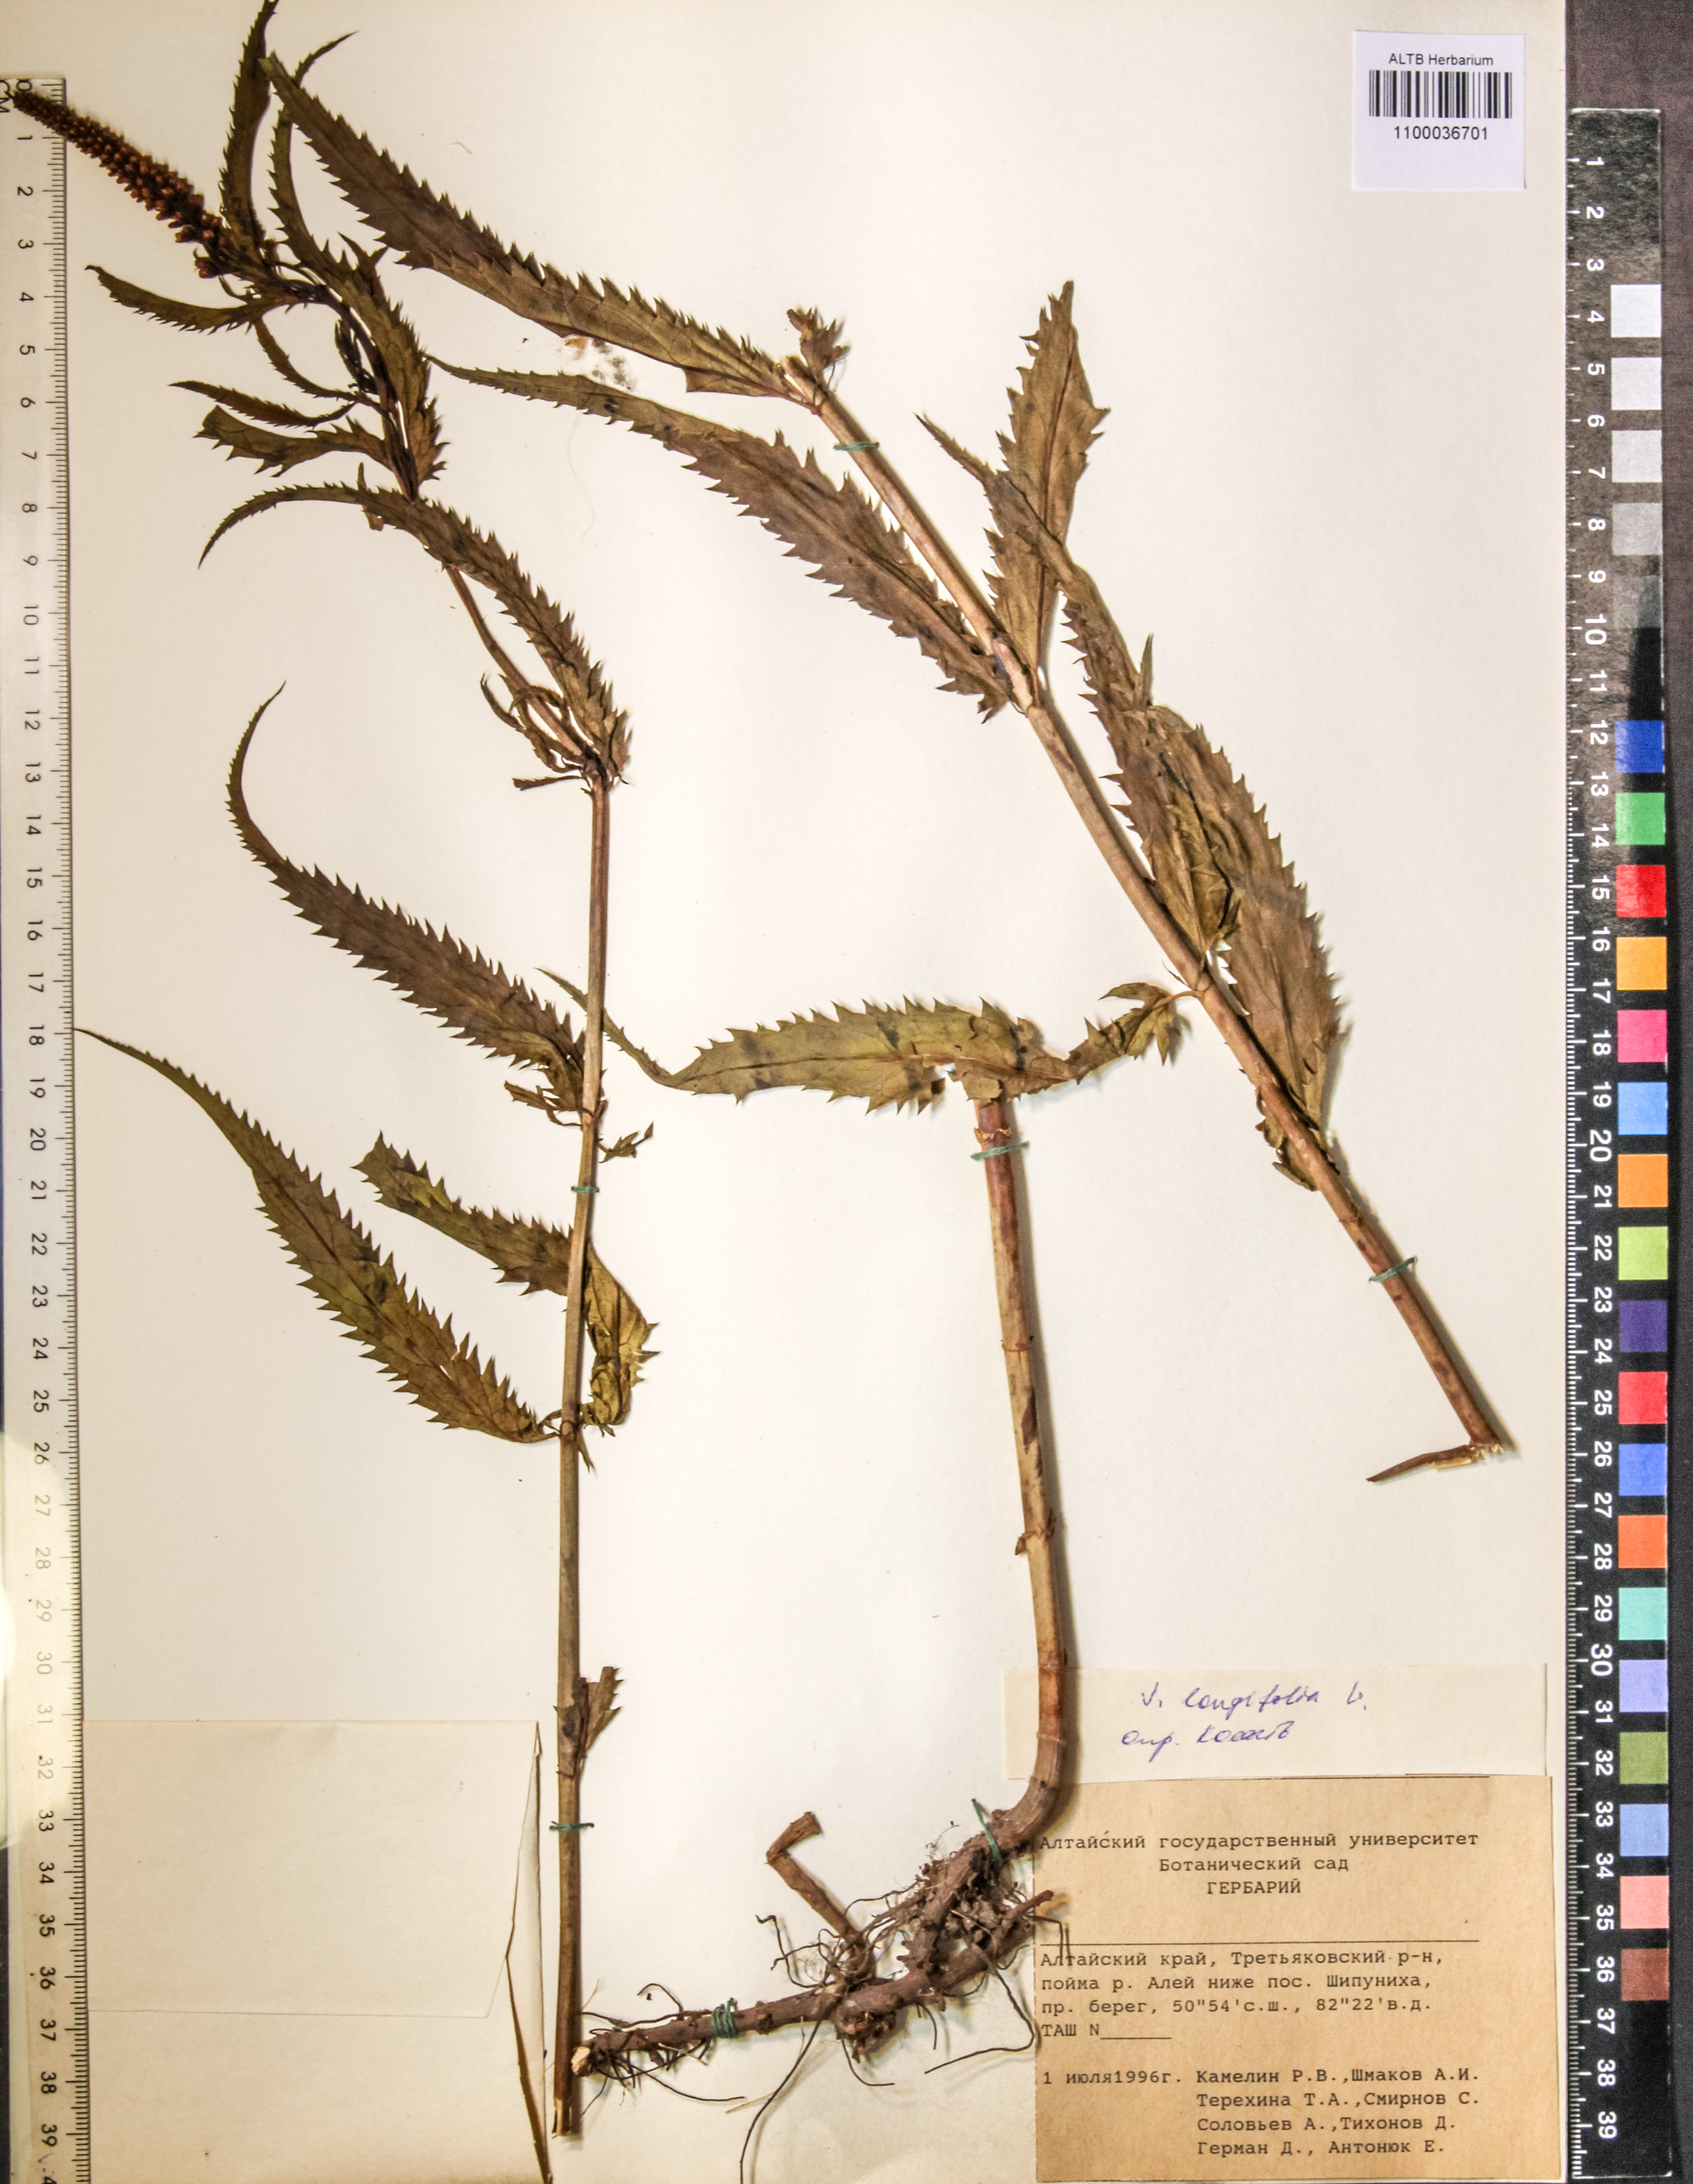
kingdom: Plantae
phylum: Tracheophyta
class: Magnoliopsida
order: Lamiales
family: Plantaginaceae
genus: Veronica
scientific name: Veronica longifolia
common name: Garden speedwell
